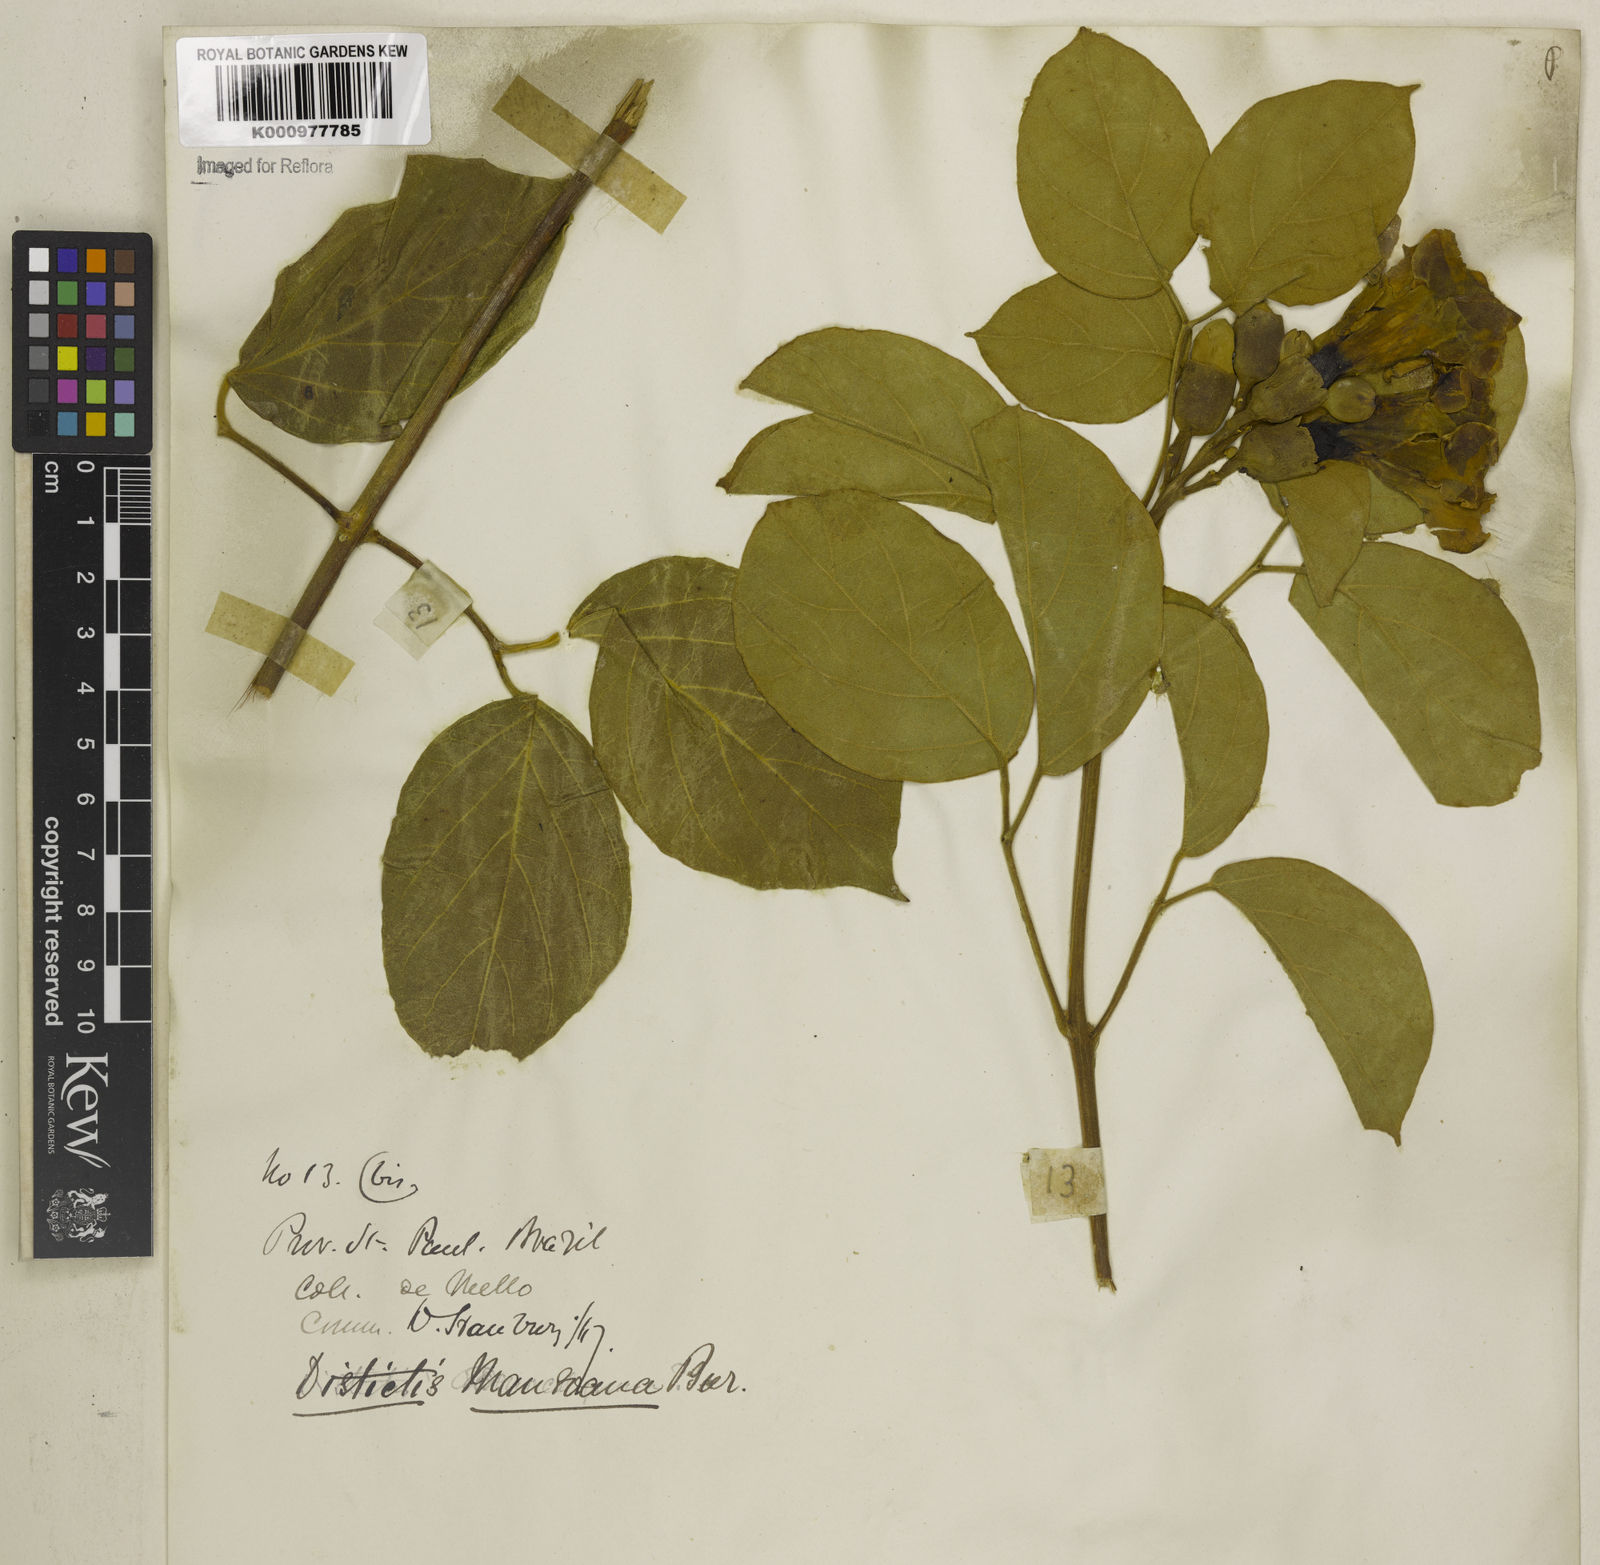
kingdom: Plantae
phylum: Tracheophyta
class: Magnoliopsida
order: Lamiales
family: Bignoniaceae
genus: Amphilophium
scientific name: Amphilophium mansoanum
